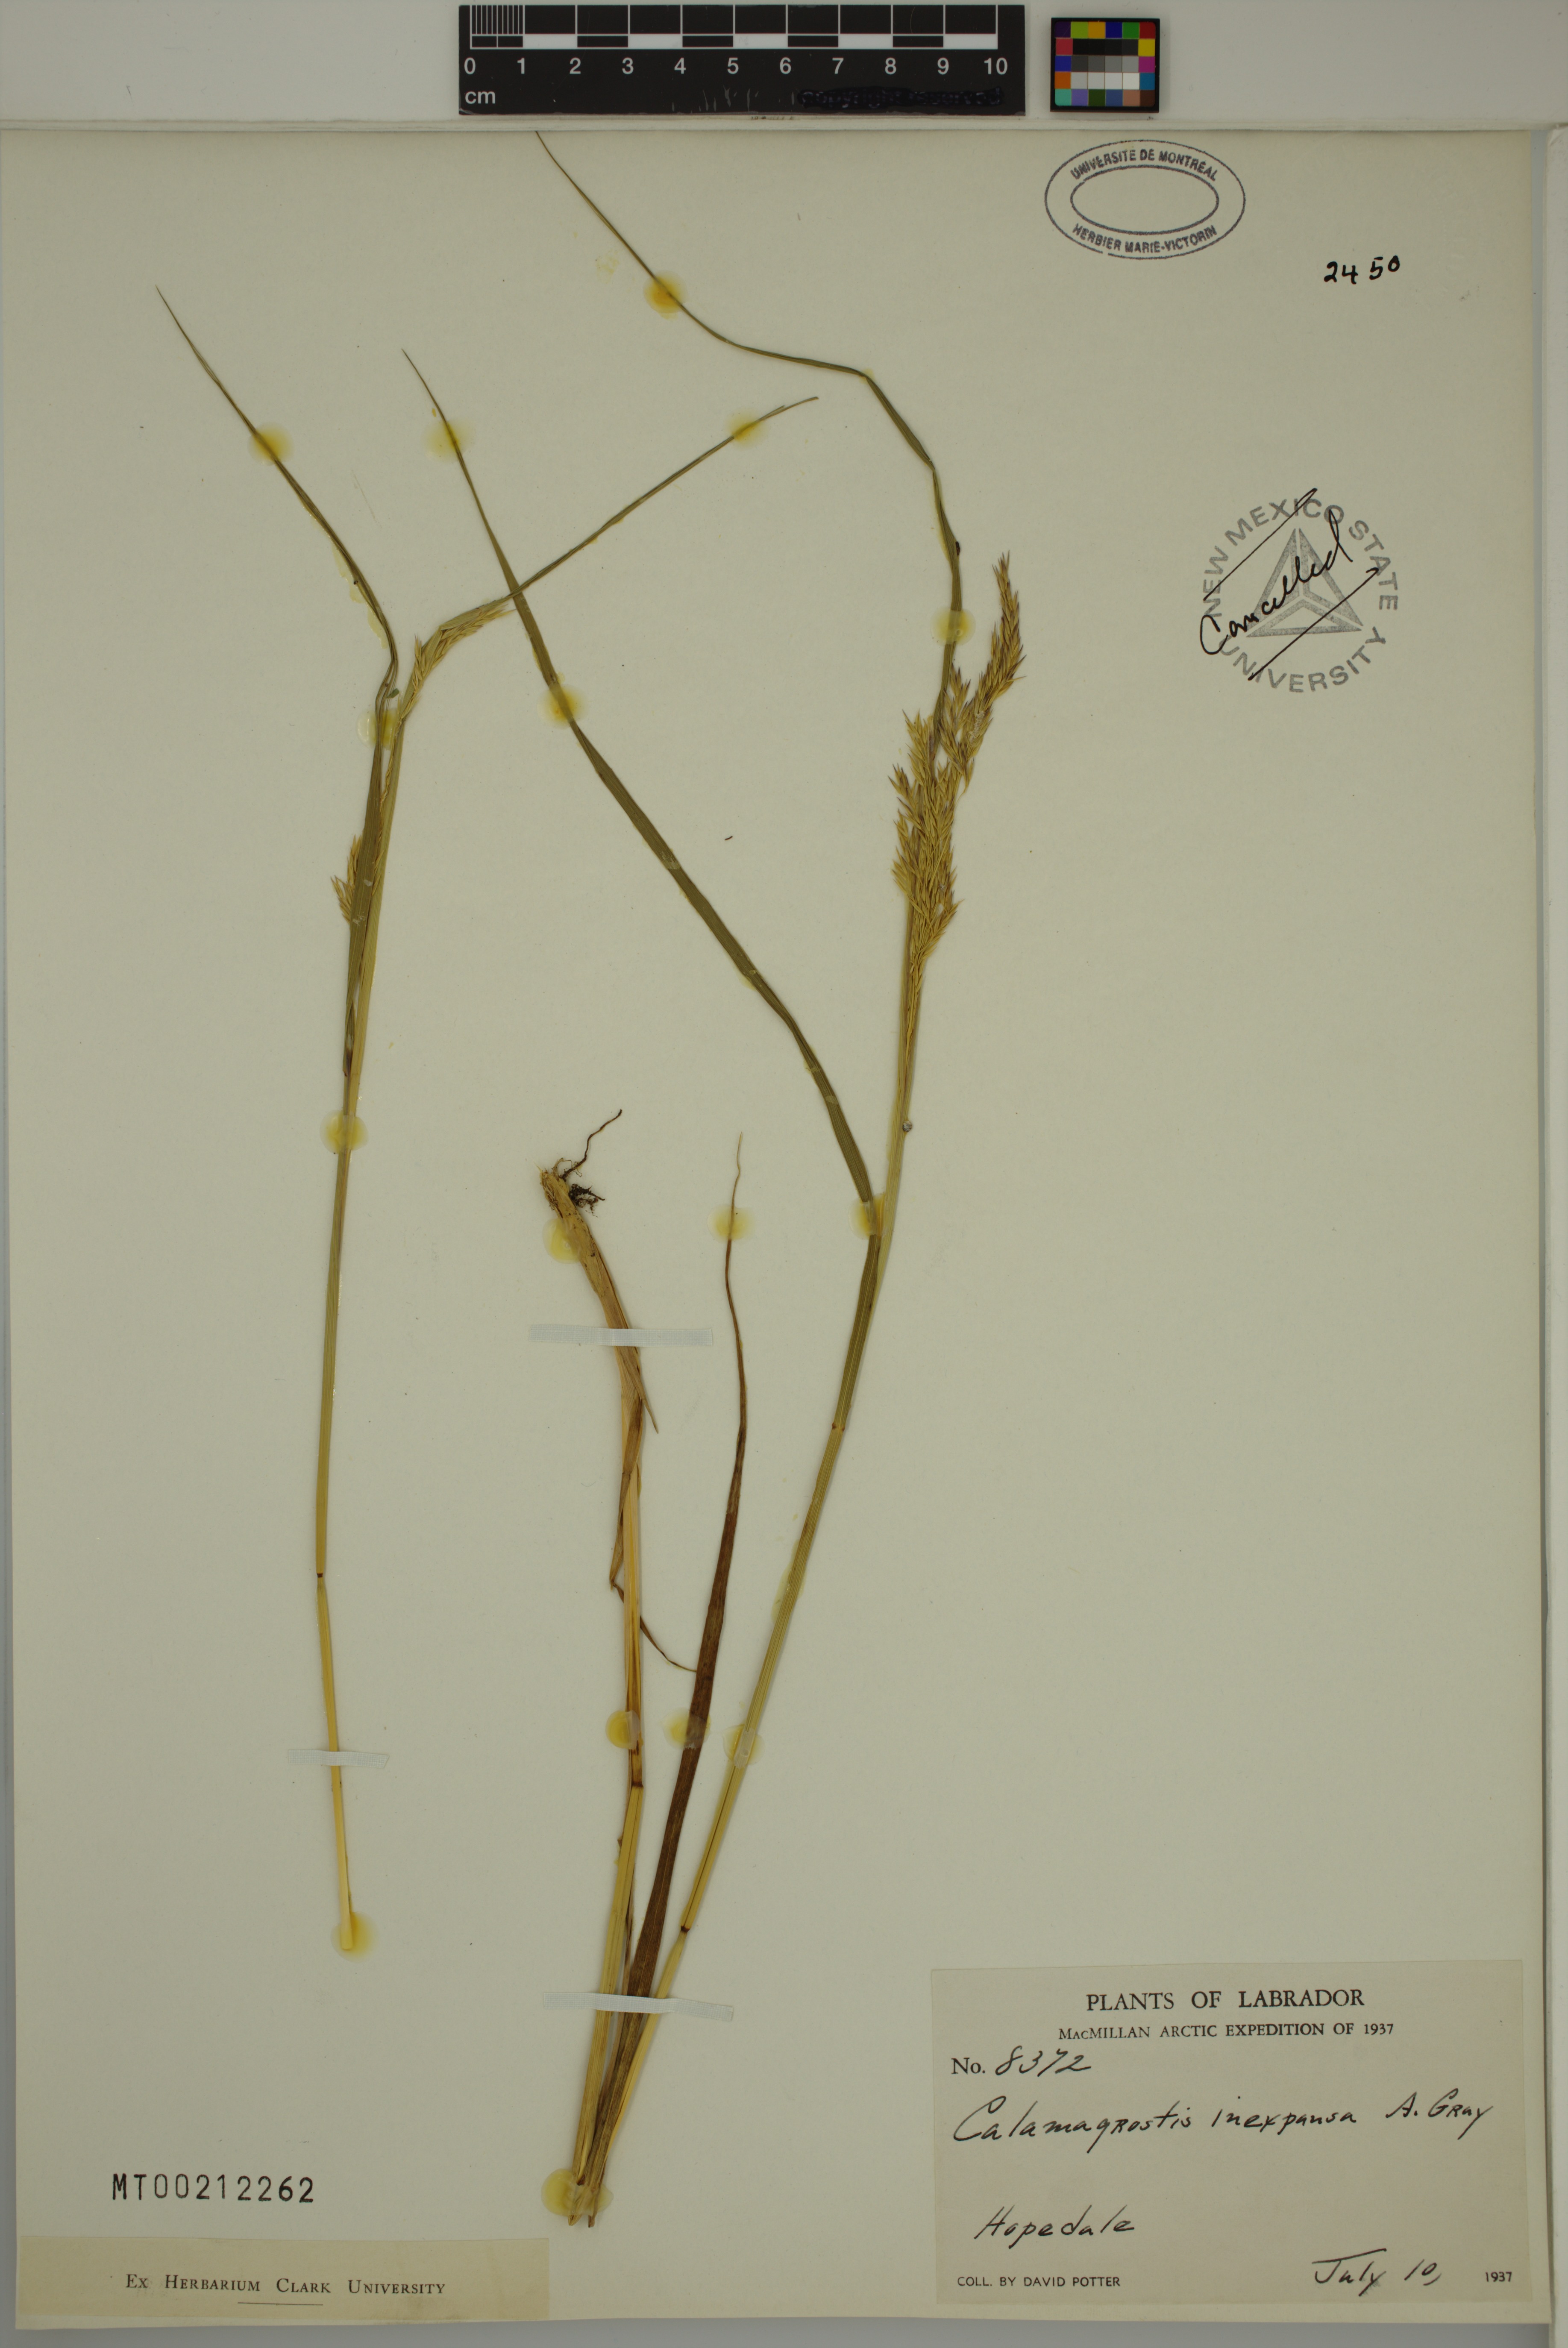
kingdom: Plantae
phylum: Tracheophyta
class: Liliopsida
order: Poales
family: Poaceae
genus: Calamagrostis
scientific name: Calamagrostis inexpansa
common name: Northern reedgrass
